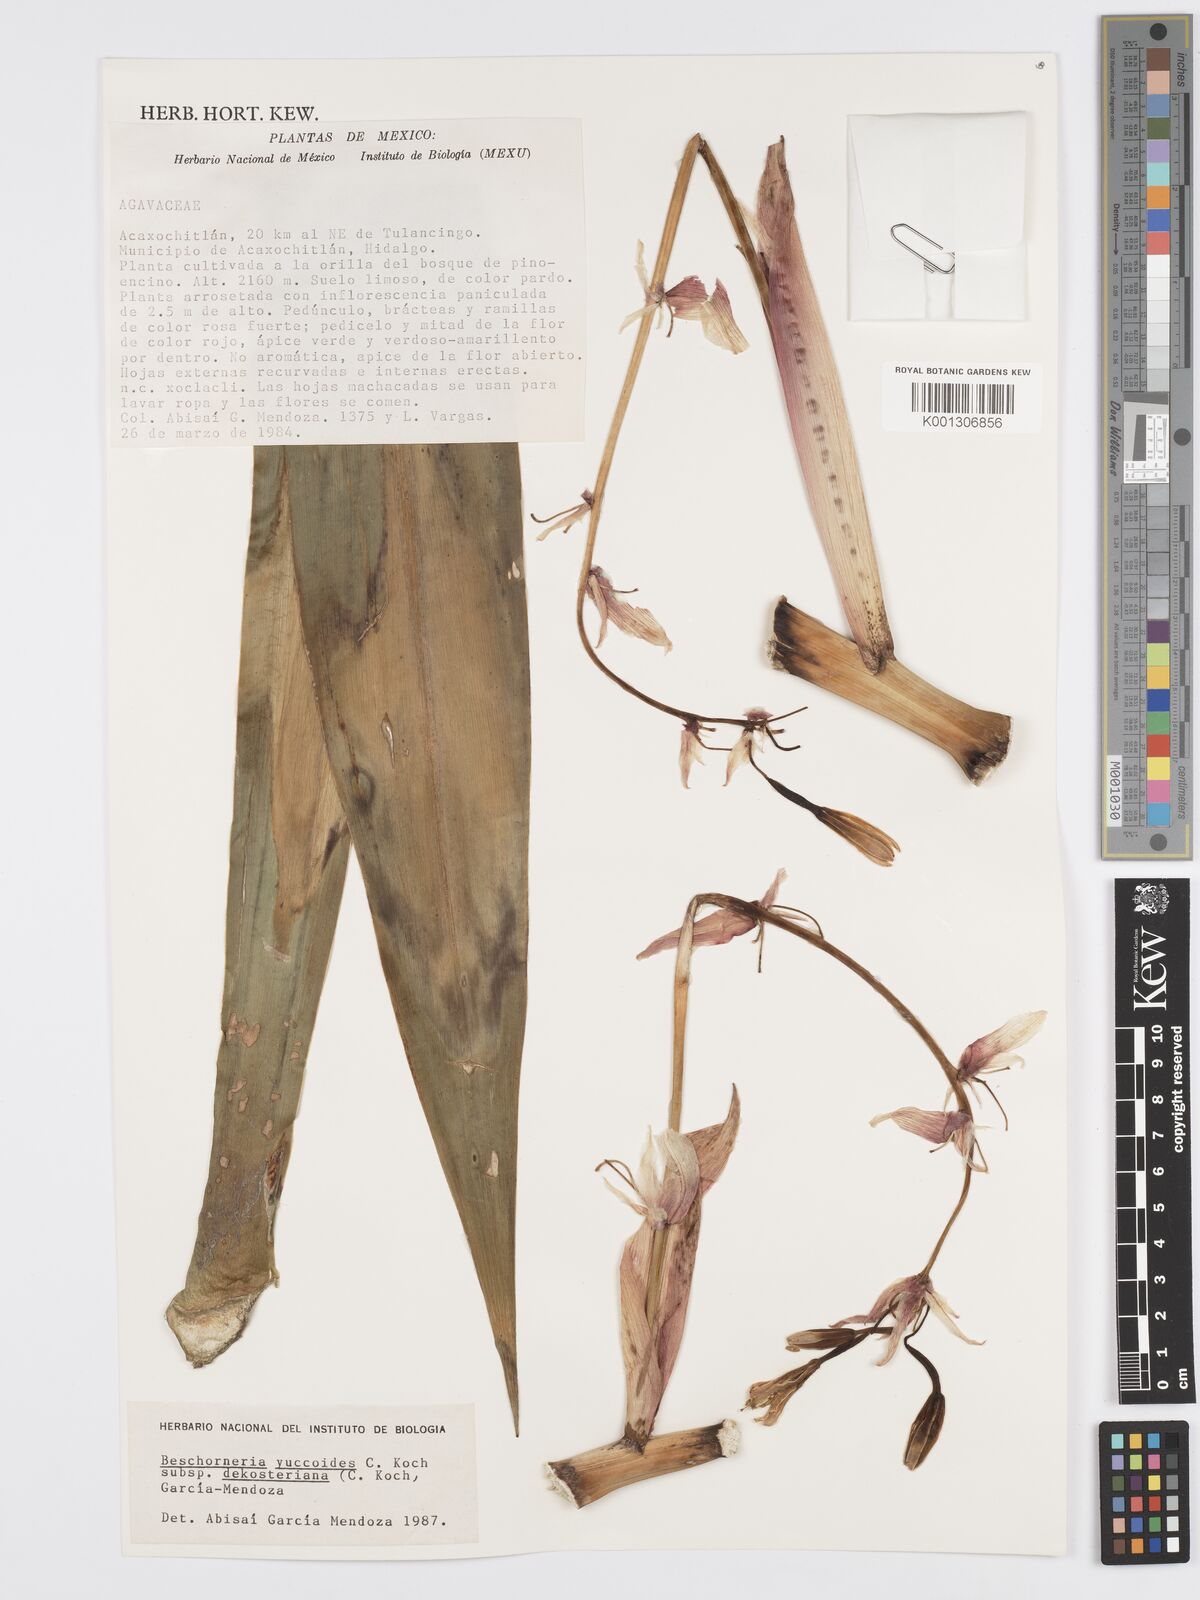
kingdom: Plantae
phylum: Tracheophyta
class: Liliopsida
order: Asparagales
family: Asparagaceae
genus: Beschorneria
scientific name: Beschorneria yuccoides
